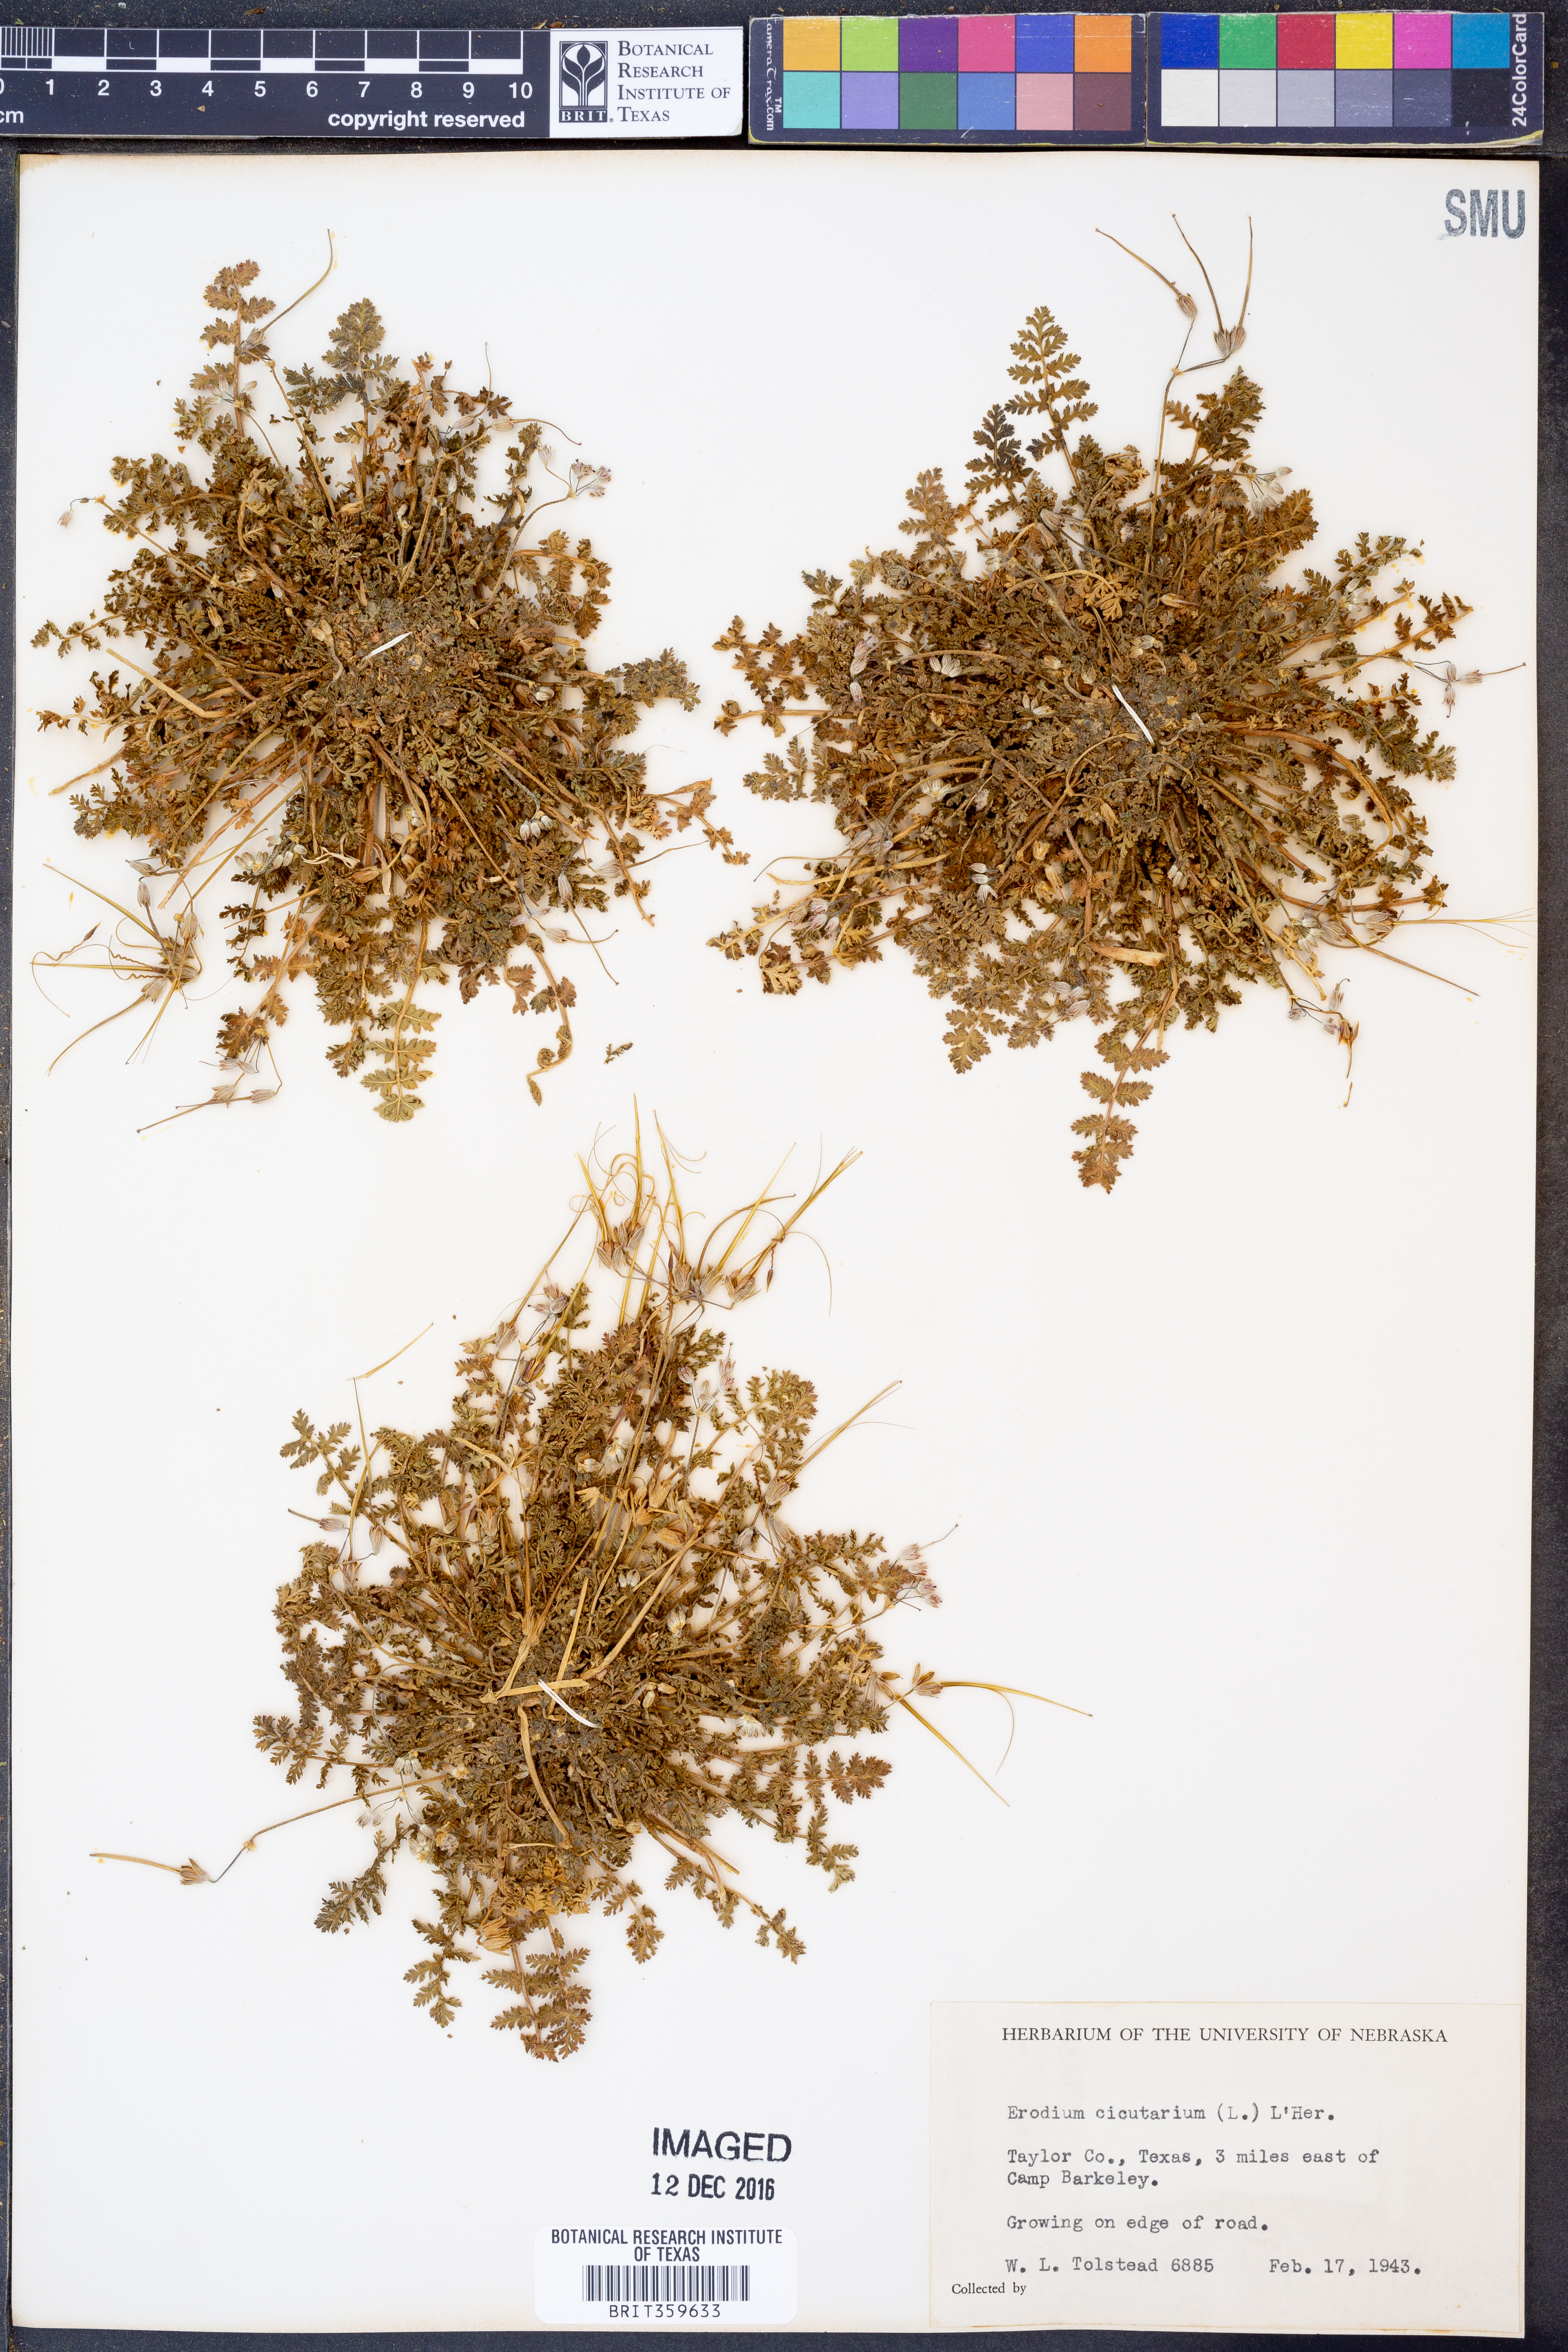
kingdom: Plantae
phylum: Tracheophyta
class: Magnoliopsida
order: Geraniales
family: Geraniaceae
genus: Erodium
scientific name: Erodium cicutarium
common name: Common stork's-bill
